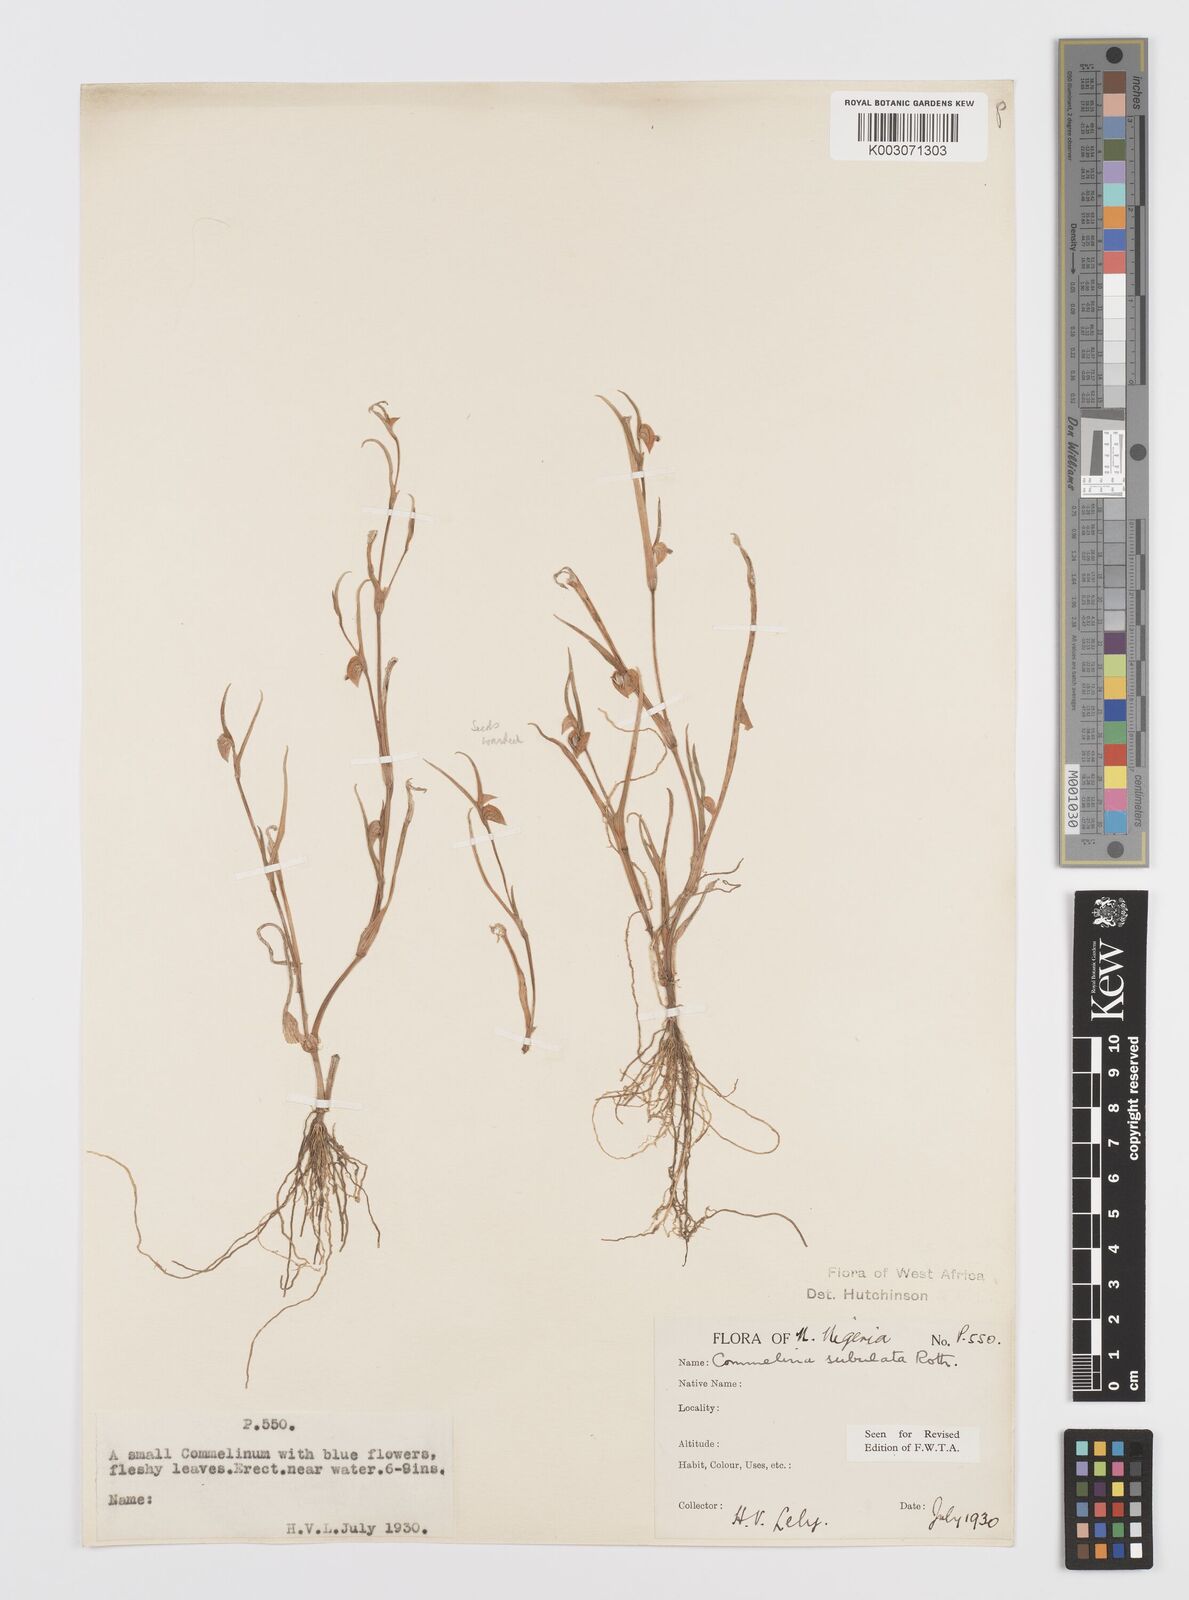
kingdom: Plantae
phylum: Tracheophyta
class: Liliopsida
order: Commelinales
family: Commelinaceae
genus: Commelina
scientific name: Commelina subulata
